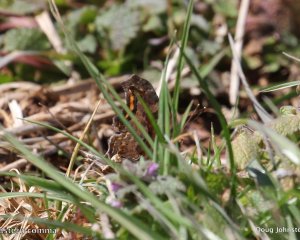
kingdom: Animalia
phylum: Arthropoda
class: Insecta
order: Lepidoptera
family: Nymphalidae
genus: Polygonia
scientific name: Polygonia comma
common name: Eastern Comma
